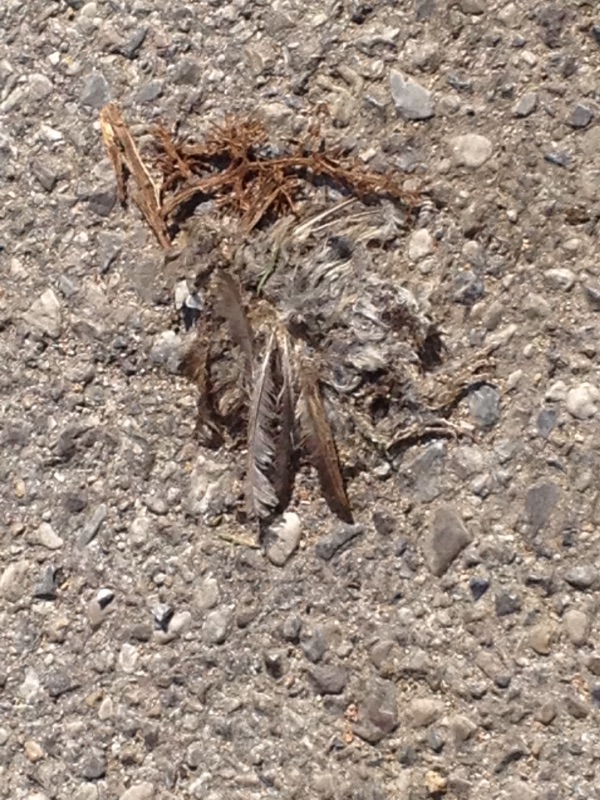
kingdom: Animalia
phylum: Chordata
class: Aves
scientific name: Aves
